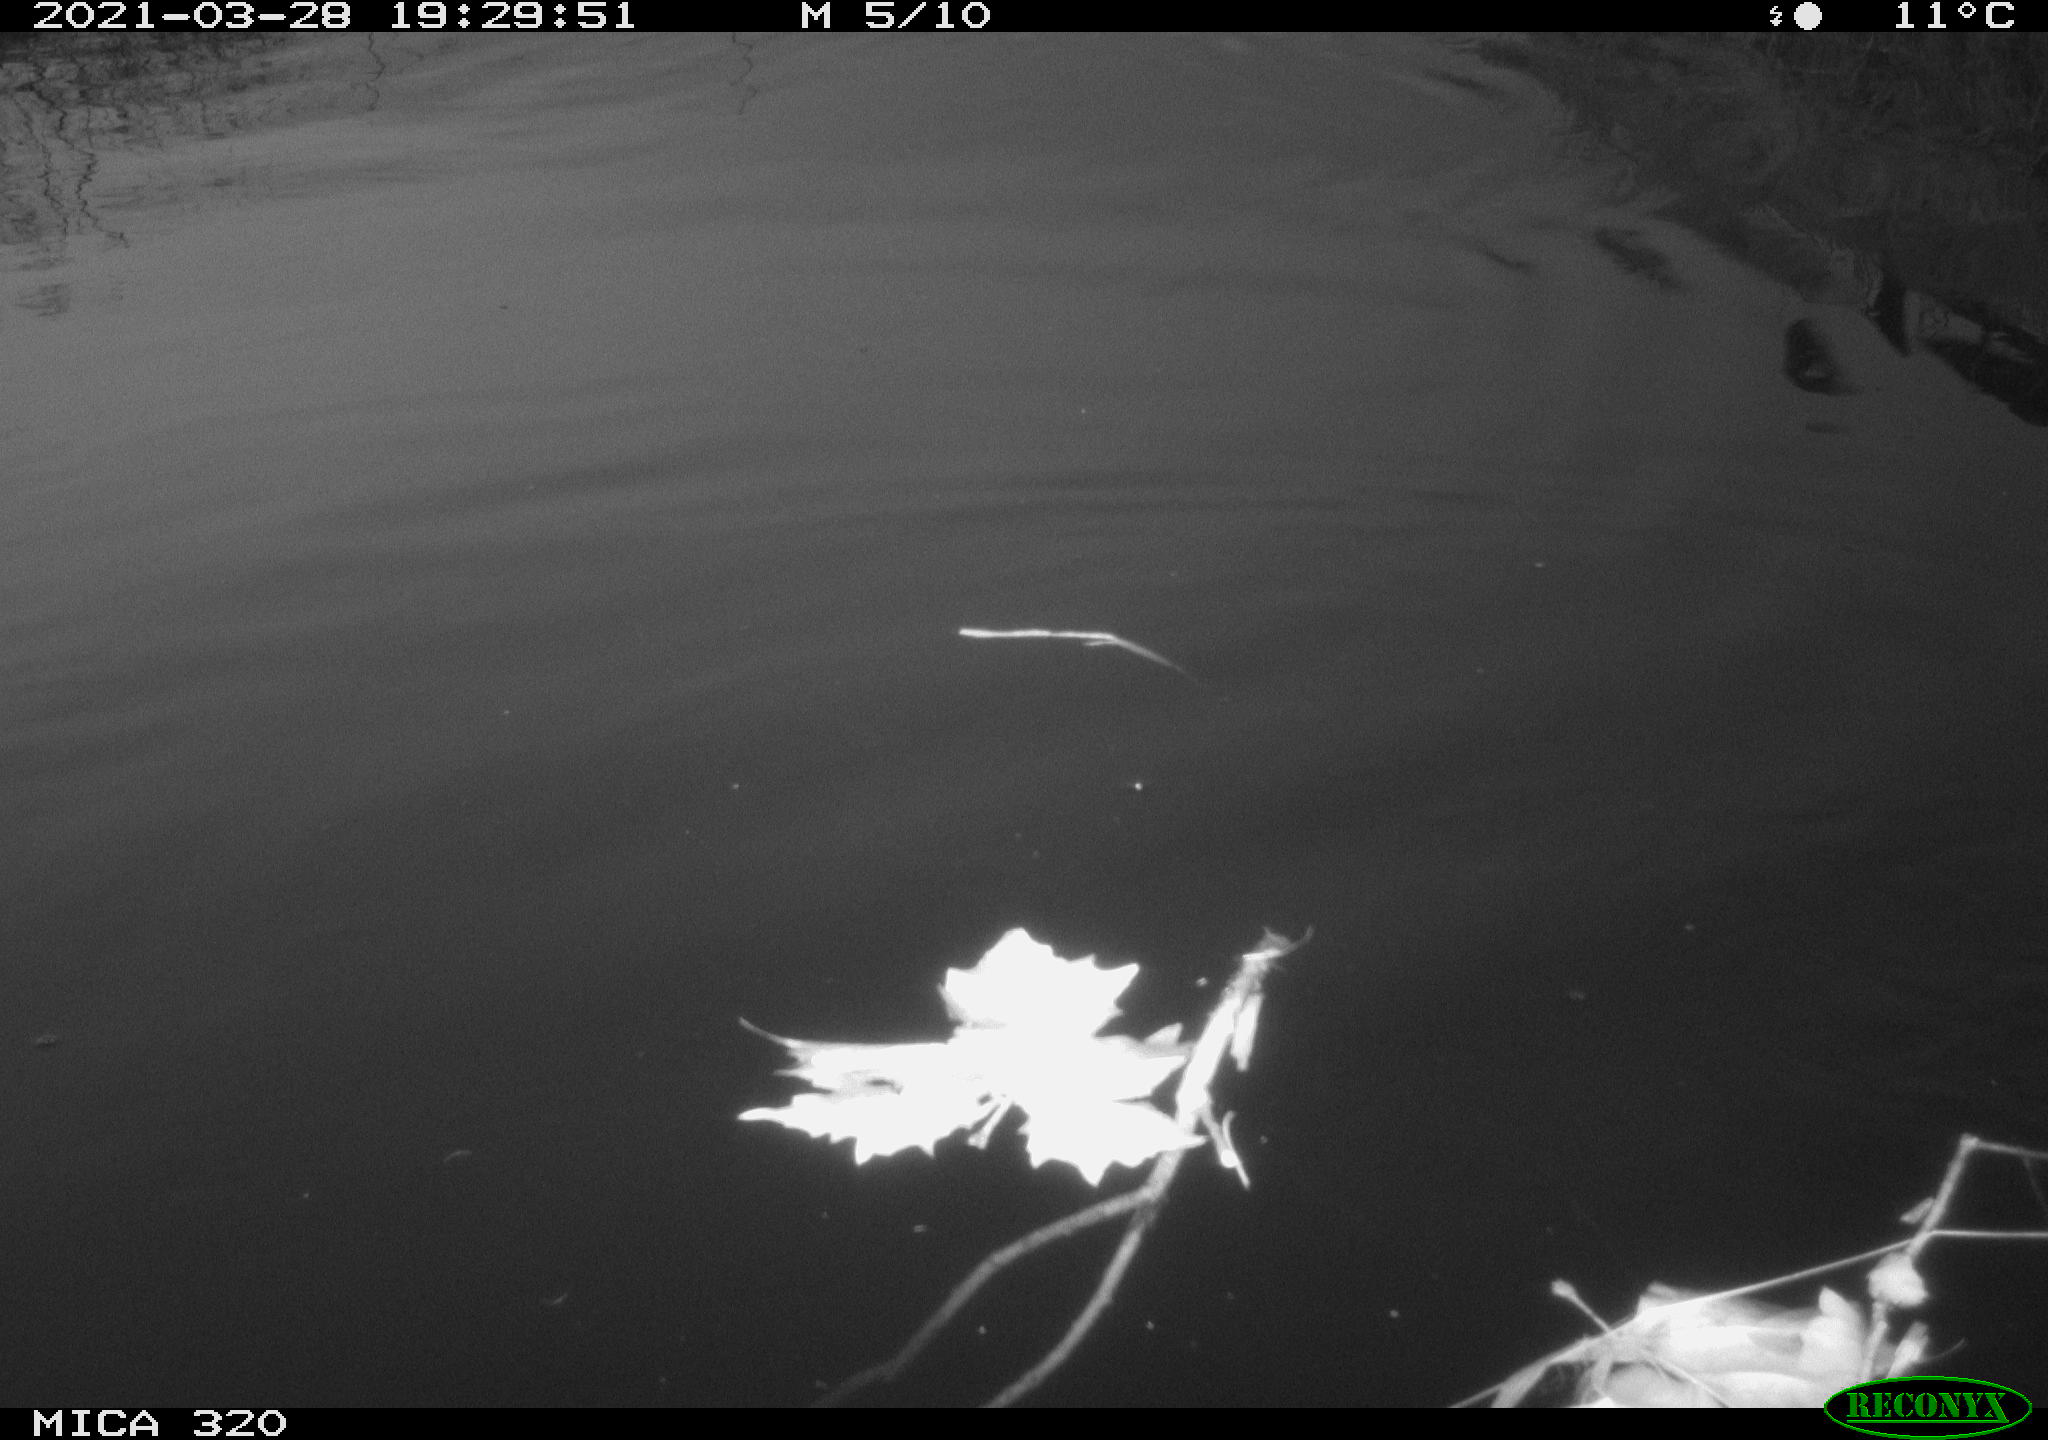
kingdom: Animalia
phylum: Chordata
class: Aves
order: Anseriformes
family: Anatidae
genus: Anas
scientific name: Anas platyrhynchos
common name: Mallard
